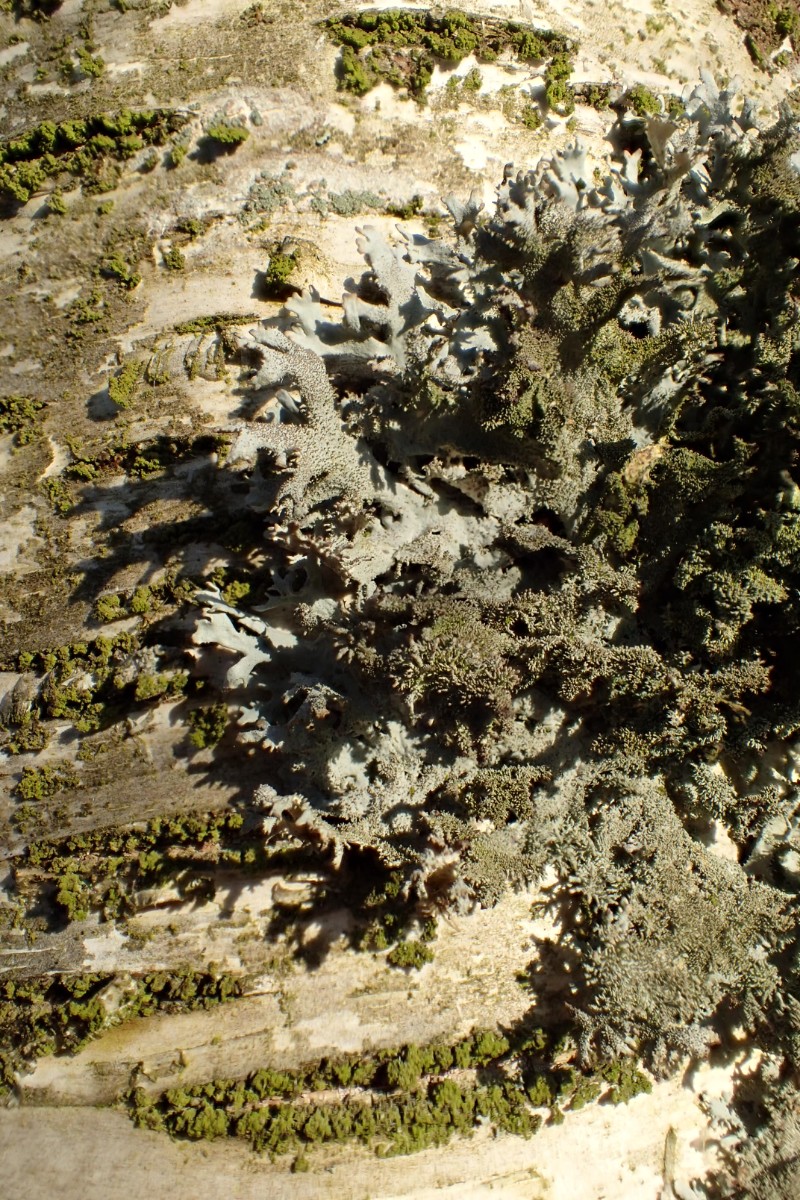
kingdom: Fungi
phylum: Ascomycota
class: Lecanoromycetes
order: Lecanorales
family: Parmeliaceae
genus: Pseudevernia
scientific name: Pseudevernia furfuracea
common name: grå fyrrelav
